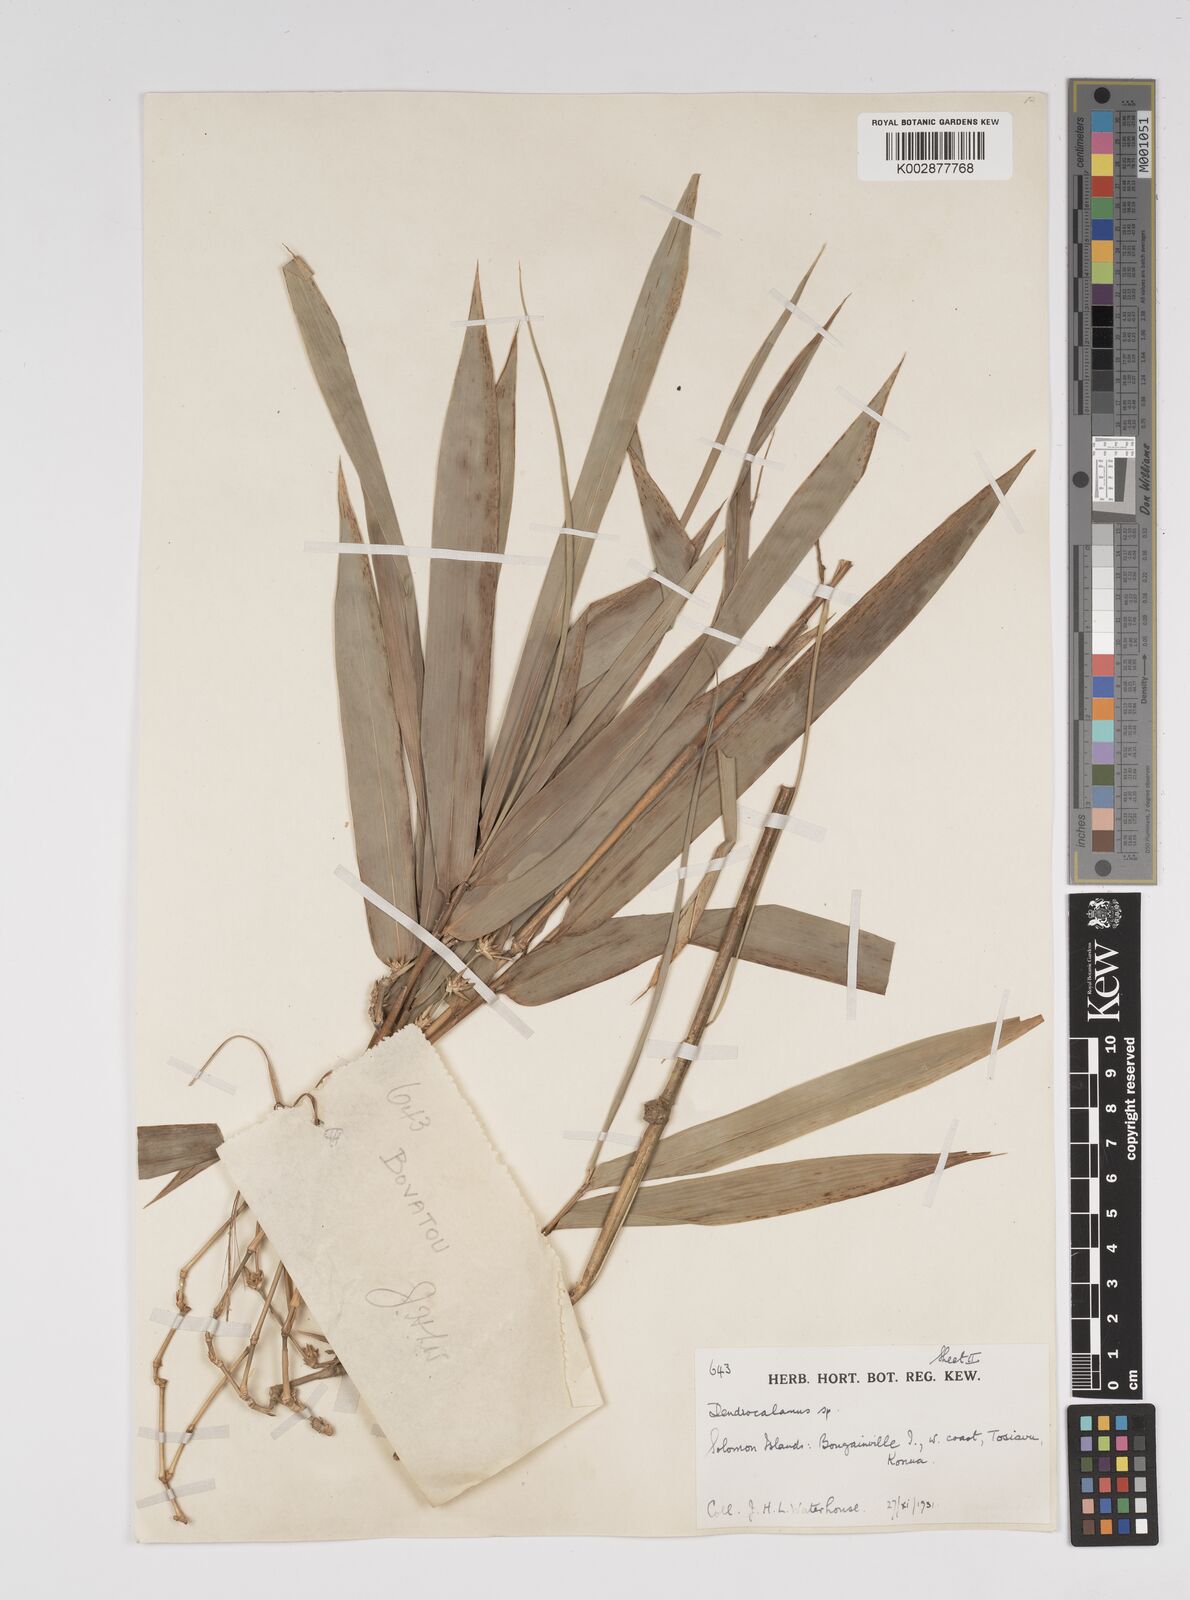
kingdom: Plantae
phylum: Tracheophyta
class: Liliopsida
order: Poales
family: Poaceae
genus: Bambusa
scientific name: Bambusa
